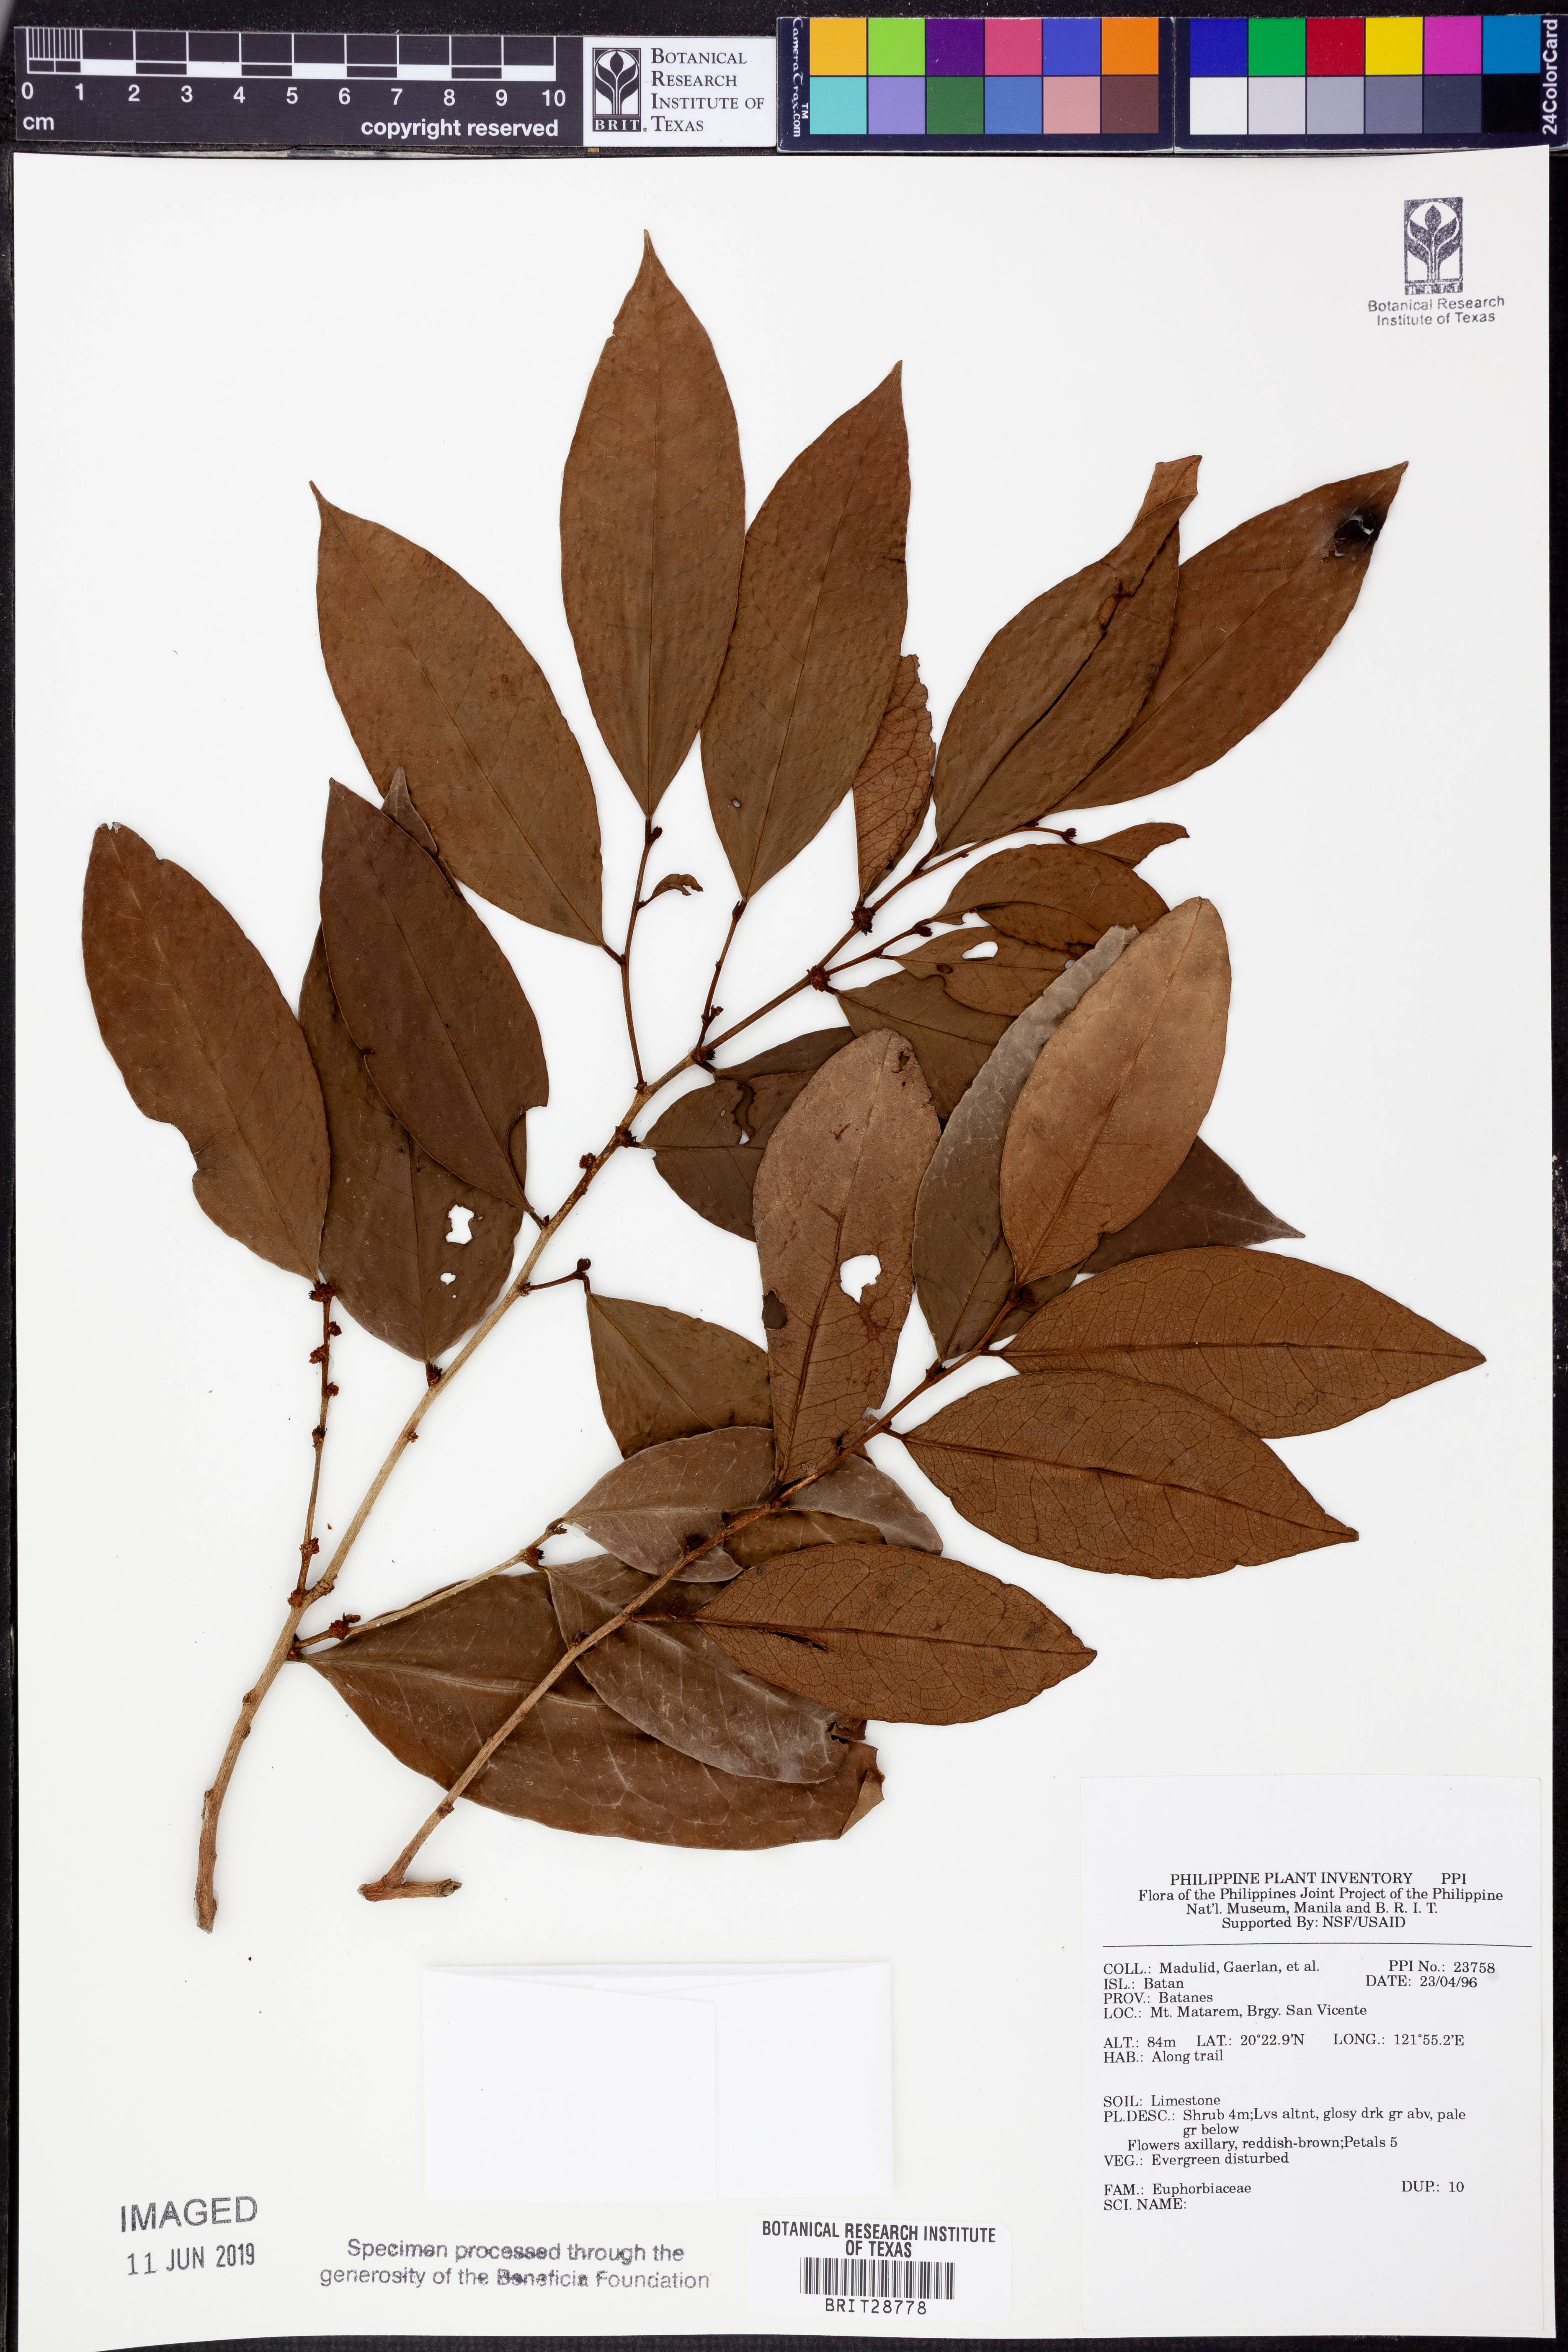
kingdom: Plantae
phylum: Tracheophyta
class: Magnoliopsida
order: Malpighiales
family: Euphorbiaceae
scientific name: Euphorbiaceae
